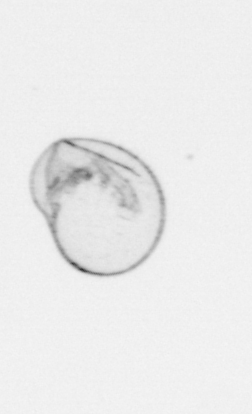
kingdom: Chromista
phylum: Myzozoa
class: Dinophyceae
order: Noctilucales
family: Noctilucaceae
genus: Noctiluca
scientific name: Noctiluca scintillans
